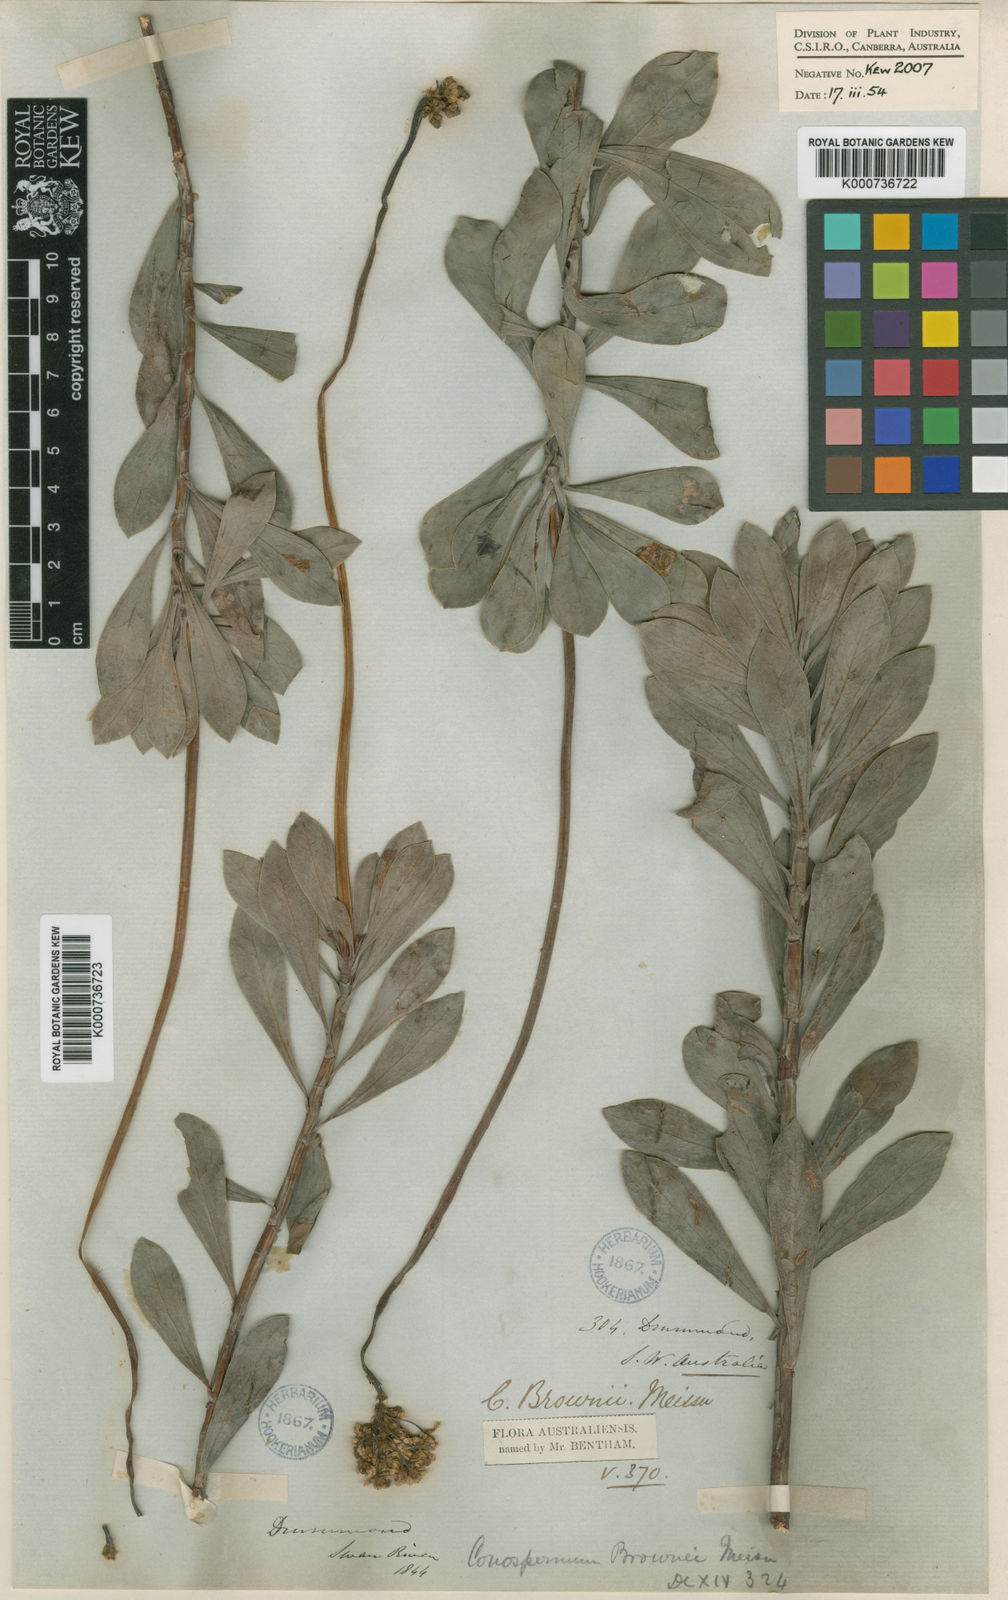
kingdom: Plantae
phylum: Tracheophyta
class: Magnoliopsida
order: Proteales
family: Proteaceae
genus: Conospermum
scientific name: Conospermum brownii
